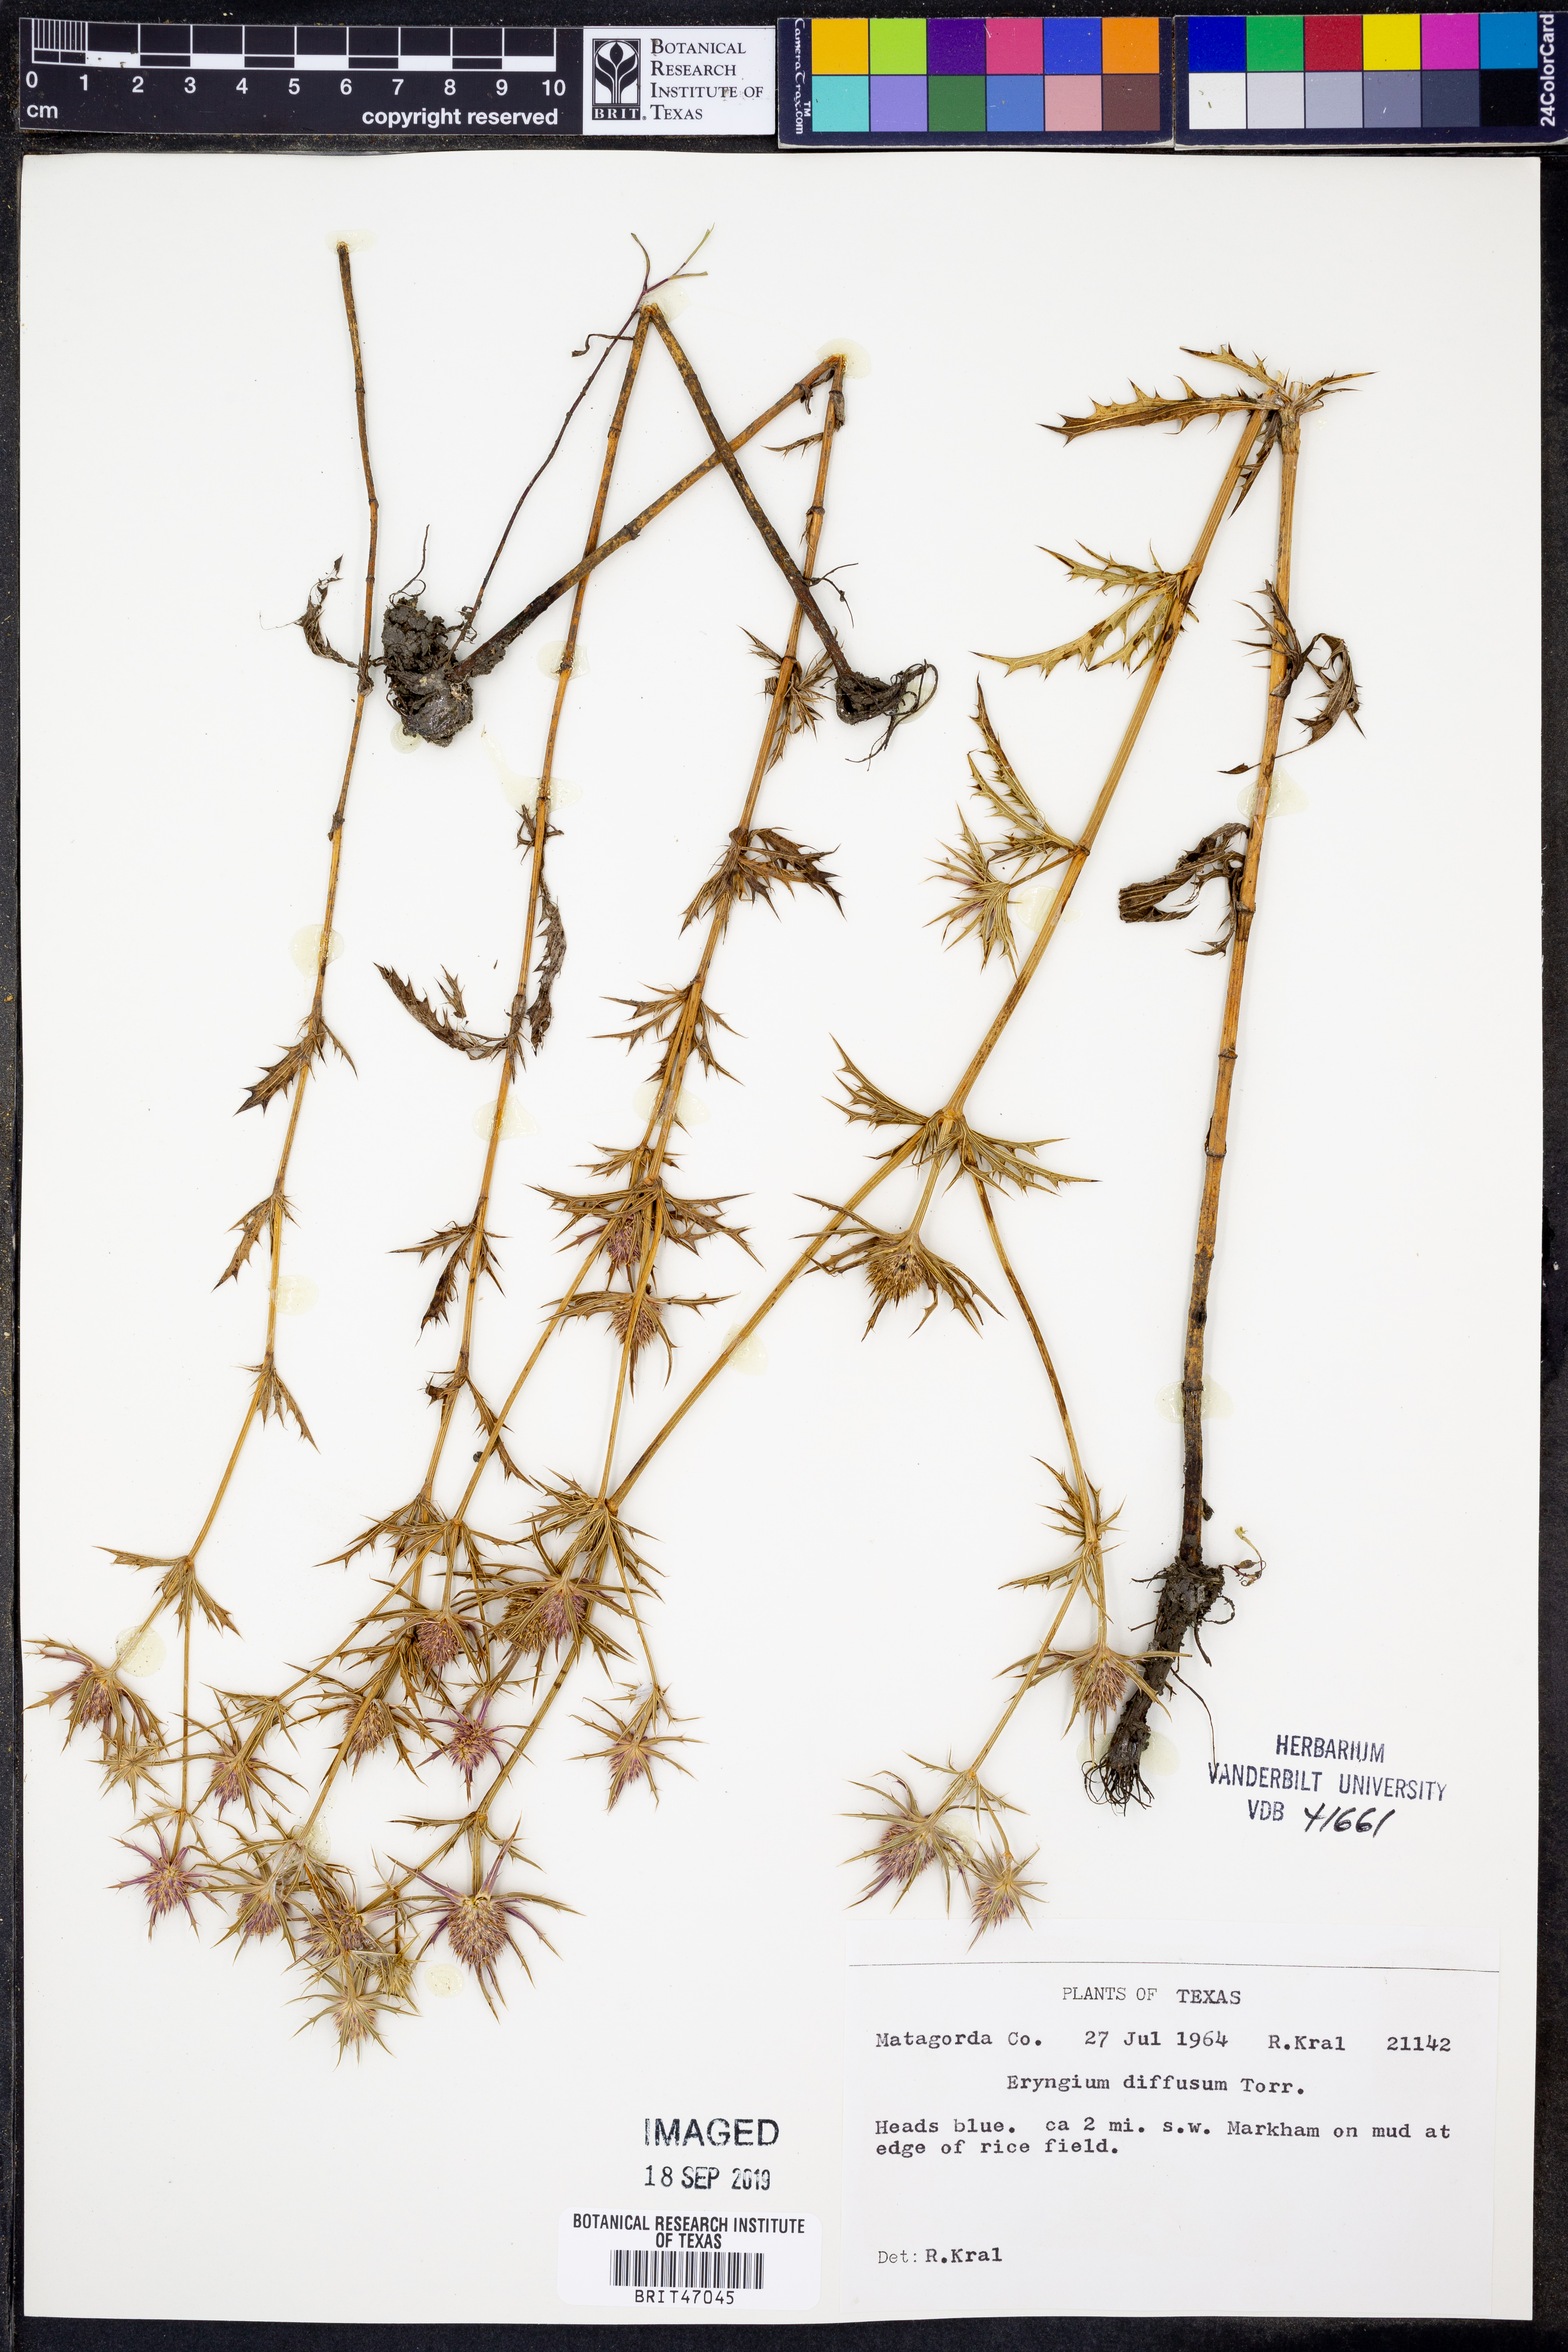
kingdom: Plantae
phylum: Tracheophyta
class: Magnoliopsida
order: Apiales
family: Apiaceae
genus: Eryngium
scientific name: Eryngium diffusum
